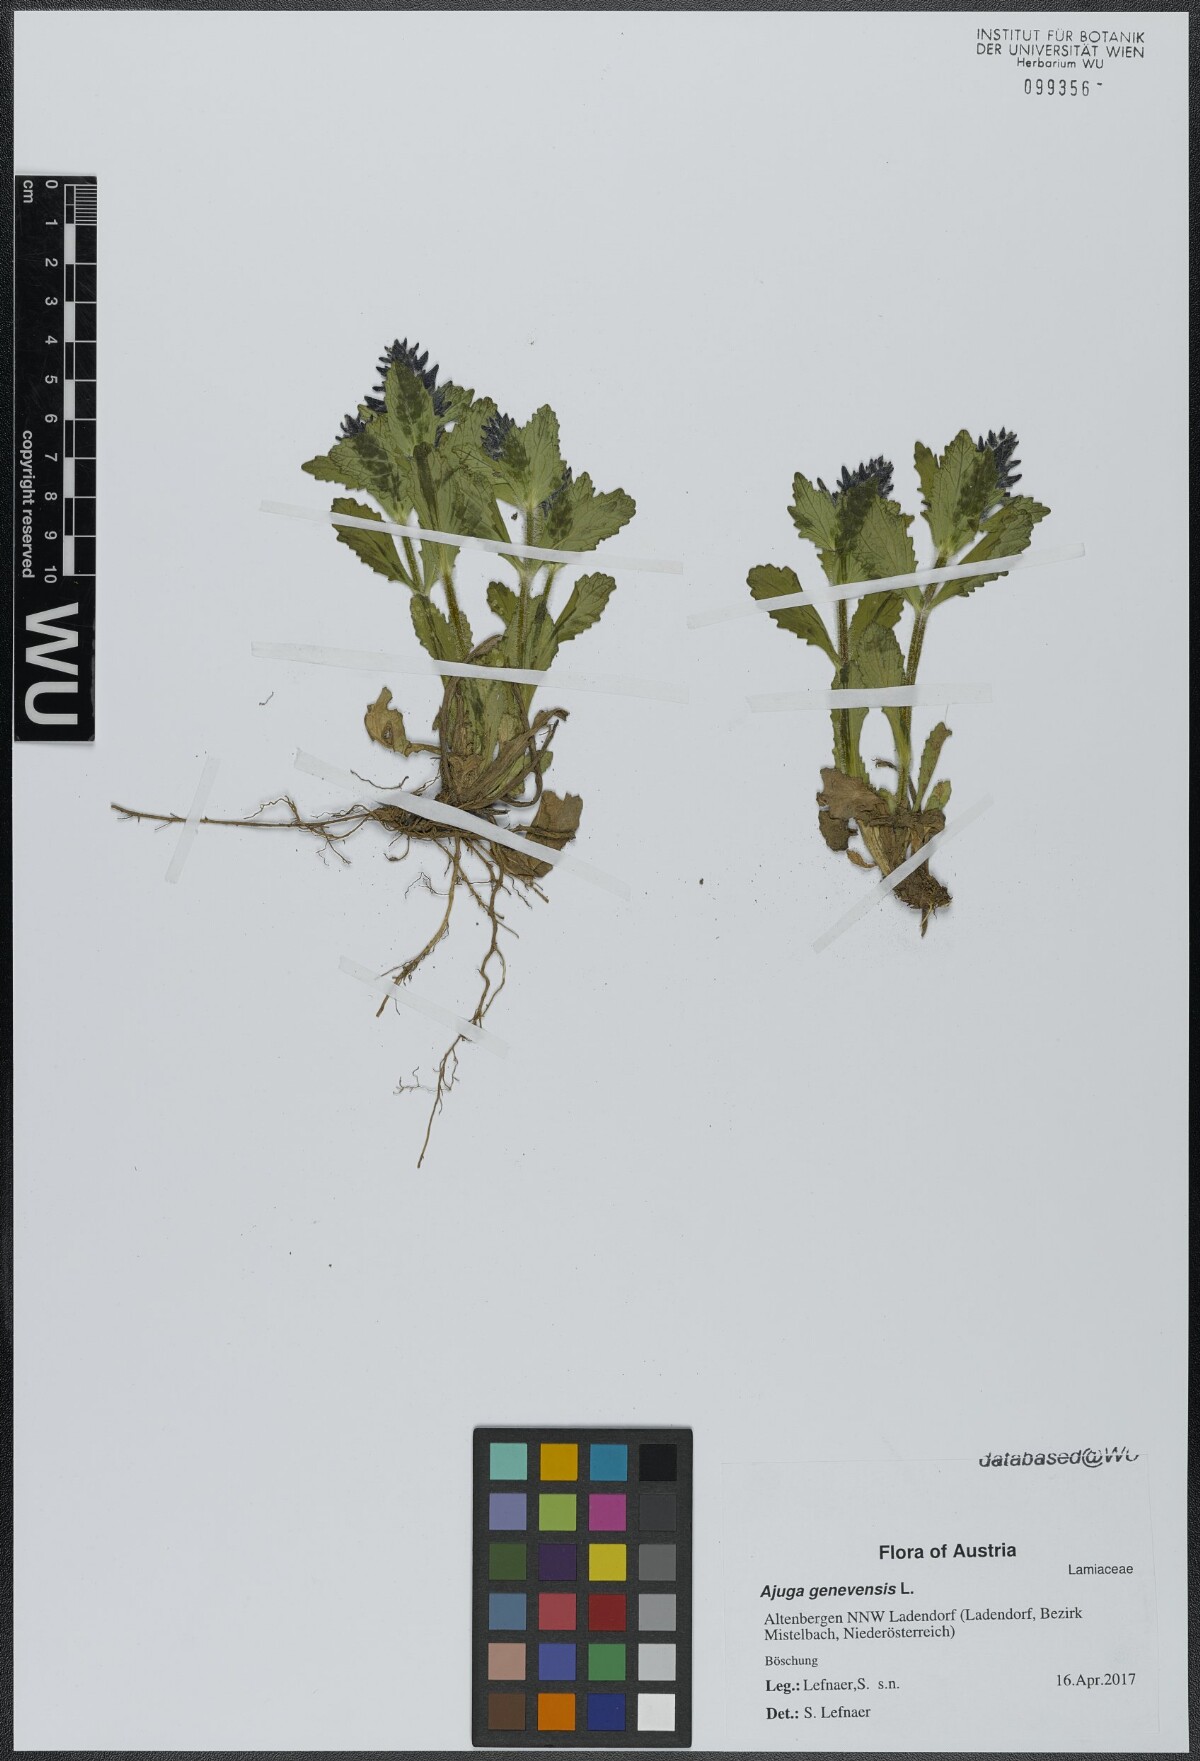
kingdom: Plantae
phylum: Tracheophyta
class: Magnoliopsida
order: Lamiales
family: Lamiaceae
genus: Ajuga
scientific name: Ajuga genevensis
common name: Blue bugle
